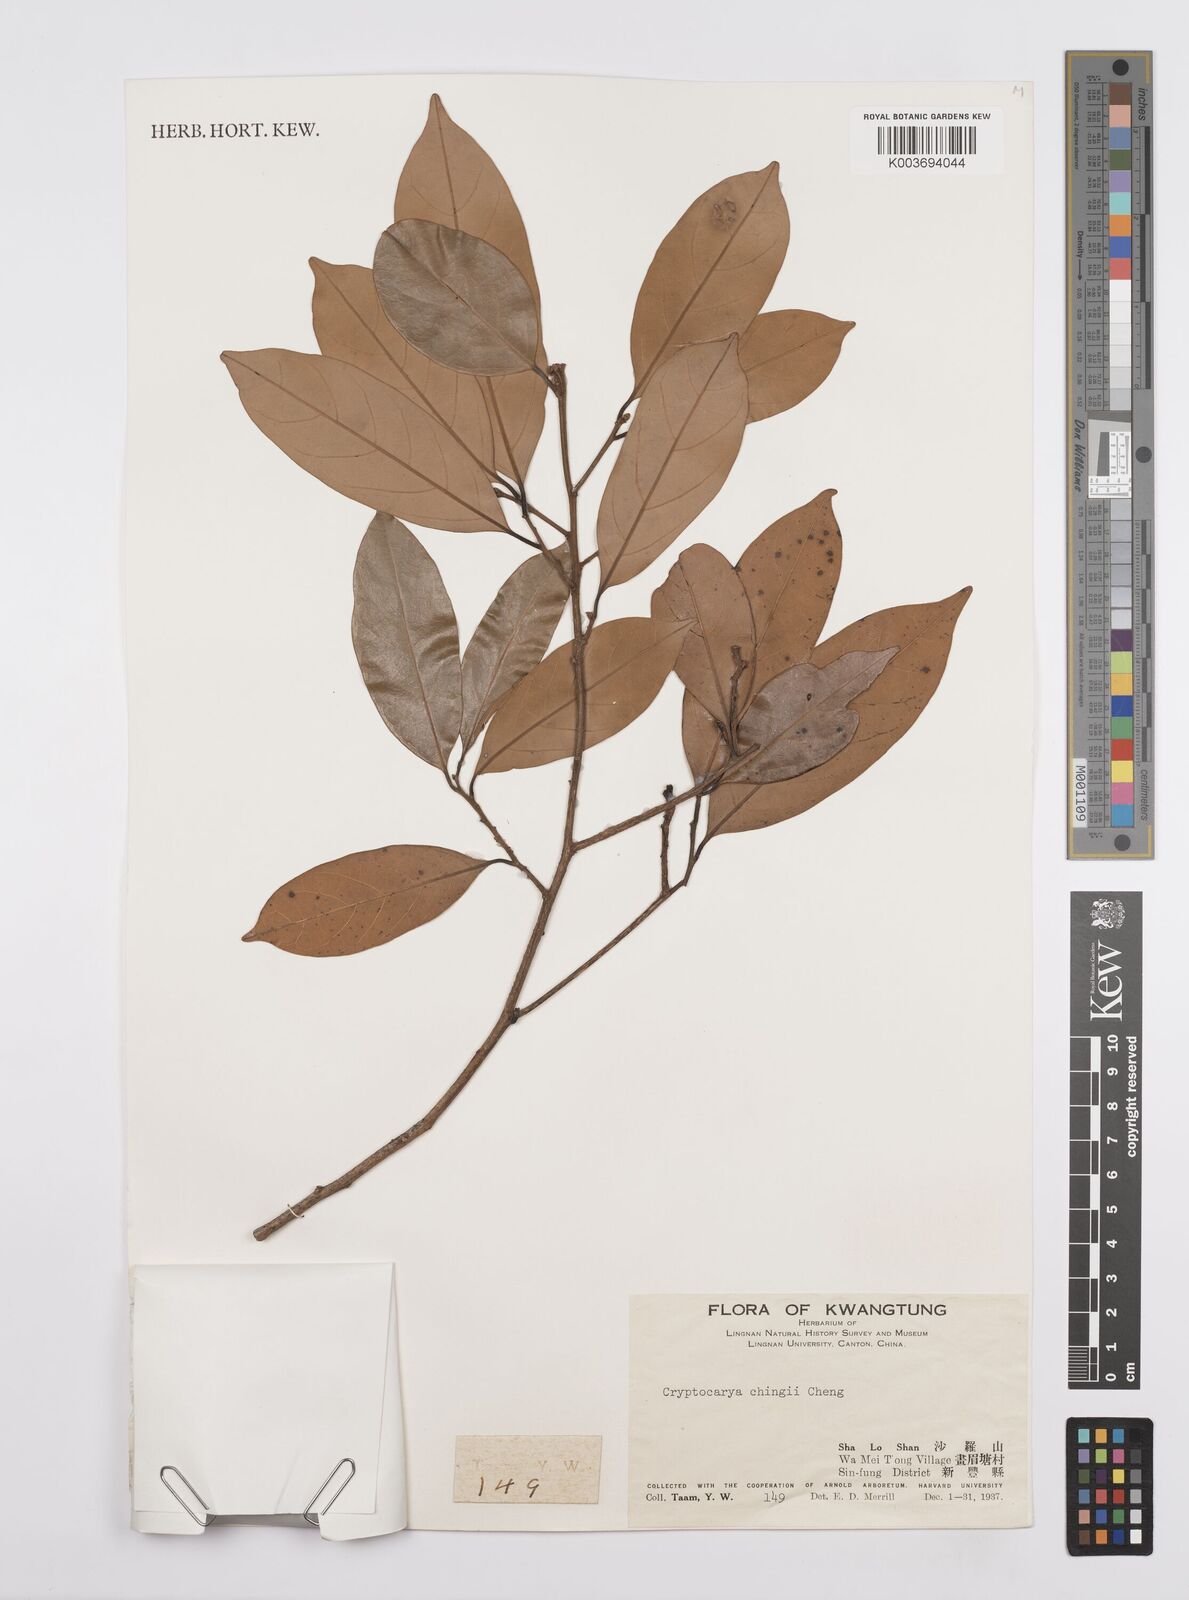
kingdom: Plantae
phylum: Tracheophyta
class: Magnoliopsida
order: Laurales
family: Lauraceae
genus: Cryptocarya
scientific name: Cryptocarya chingii
